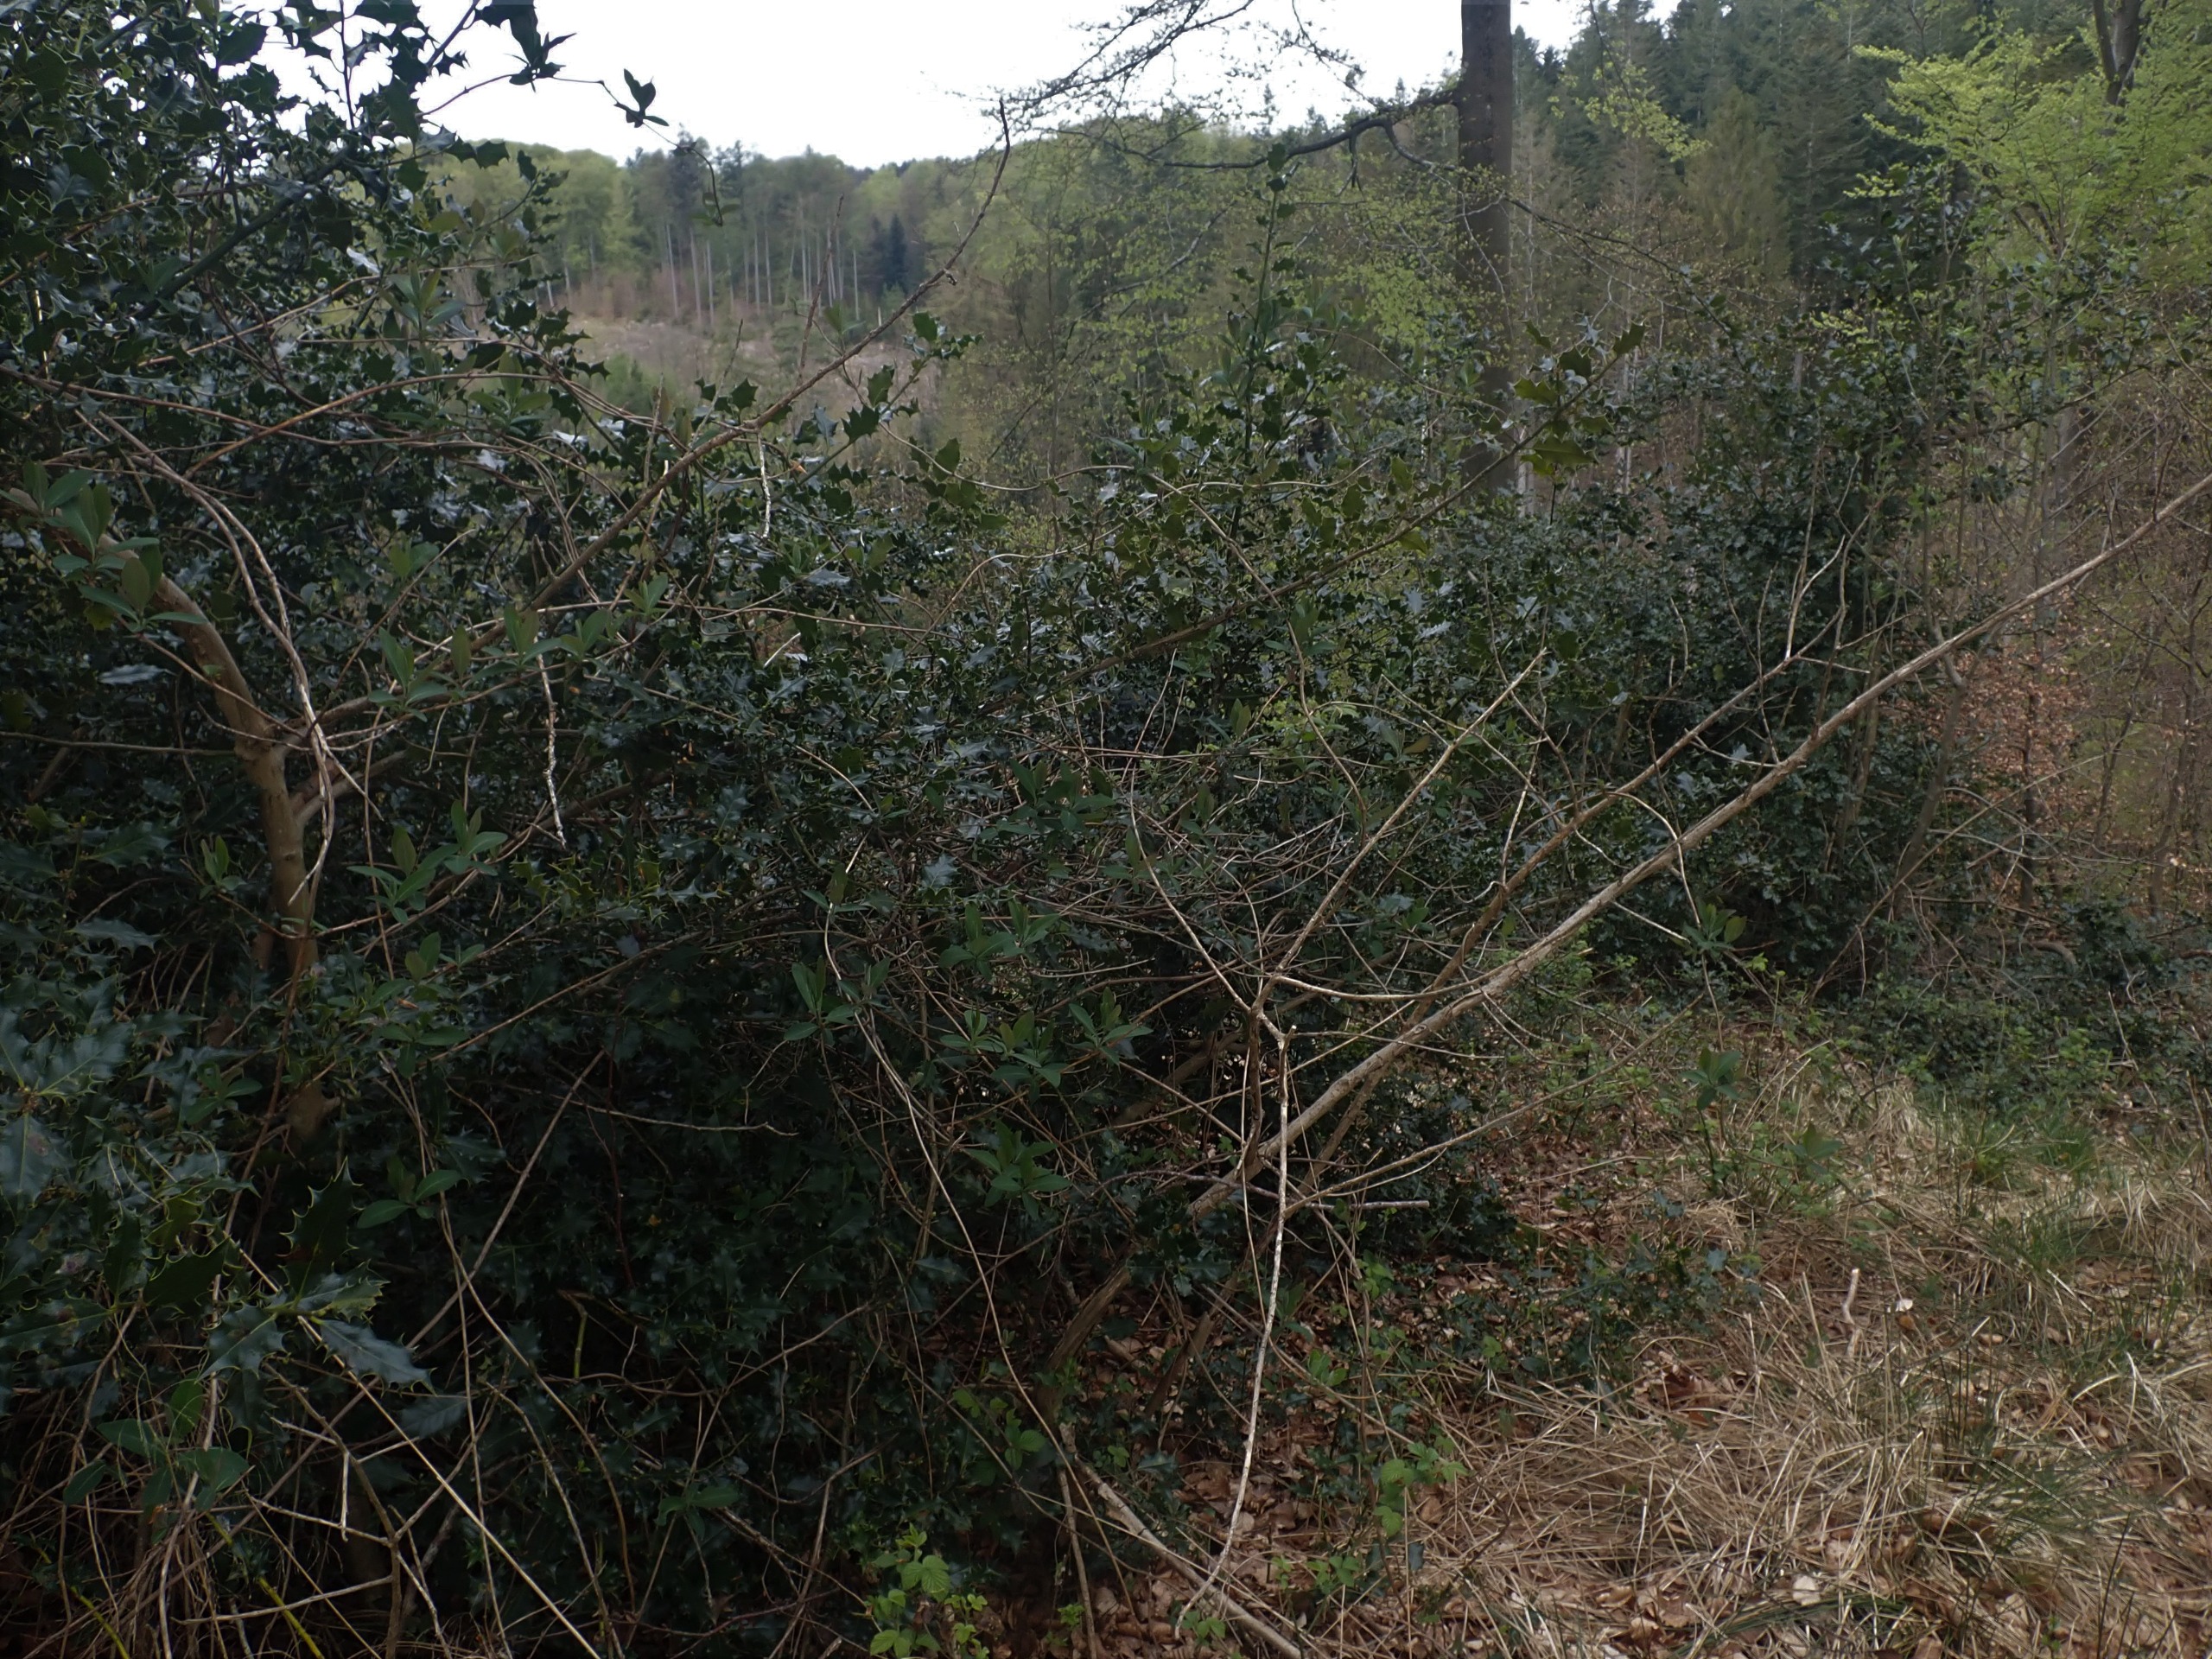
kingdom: Plantae
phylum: Tracheophyta
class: Magnoliopsida
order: Aquifoliales
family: Aquifoliaceae
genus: Ilex
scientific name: Ilex aquifolium
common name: Kristtorn
